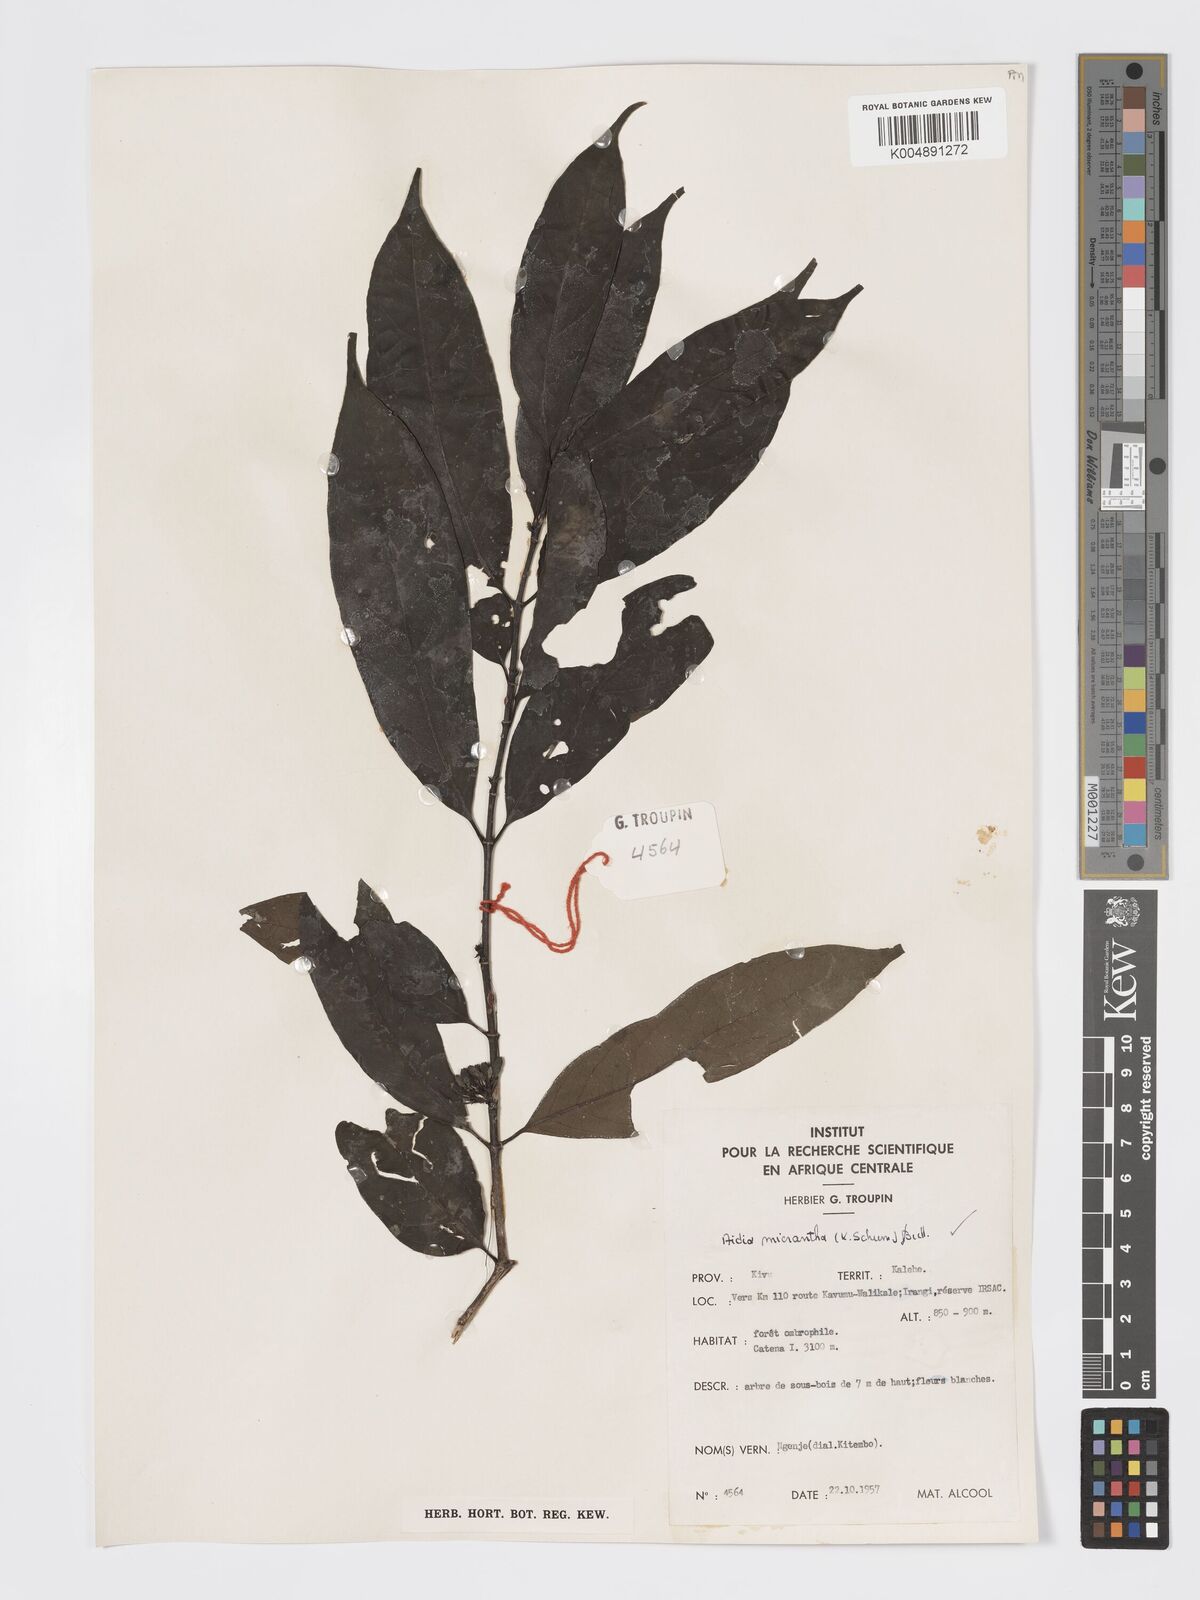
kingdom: Plantae
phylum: Tracheophyta
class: Magnoliopsida
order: Gentianales
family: Rubiaceae
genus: Aidia
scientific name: Aidia micrantha
